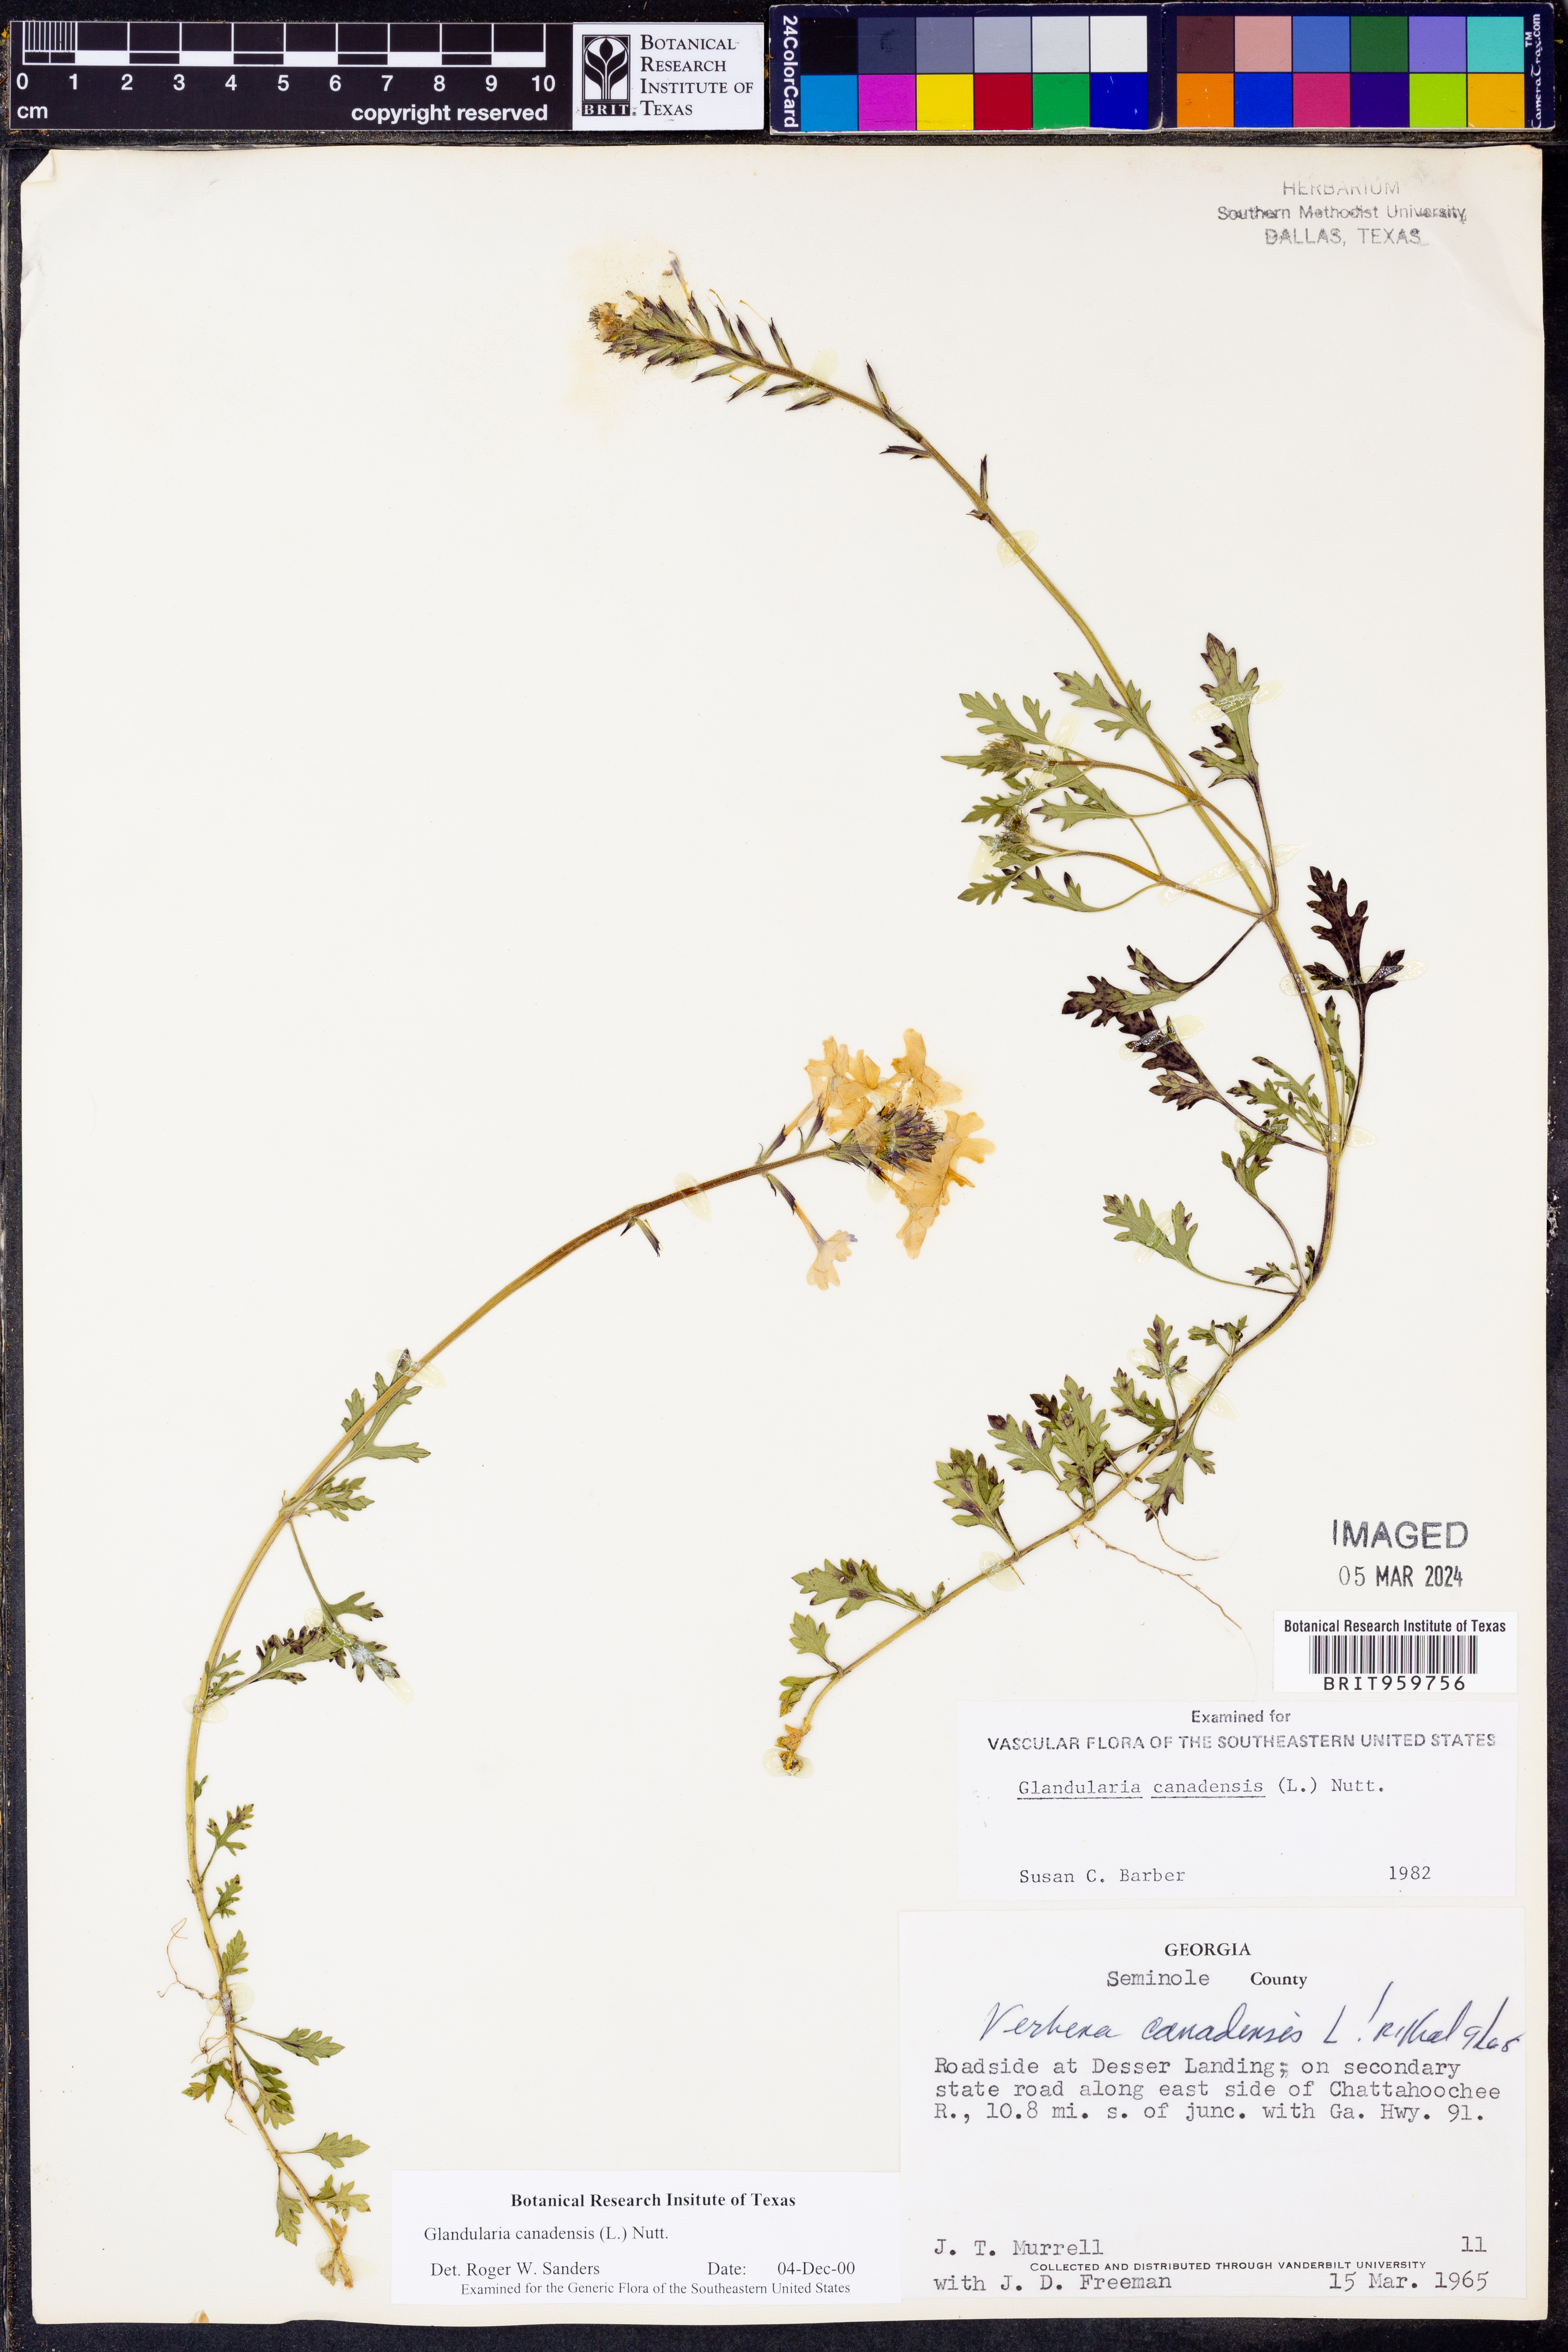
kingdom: Plantae
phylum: Tracheophyta
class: Magnoliopsida
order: Lamiales
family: Verbenaceae
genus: Verbena
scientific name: Verbena canadensis
